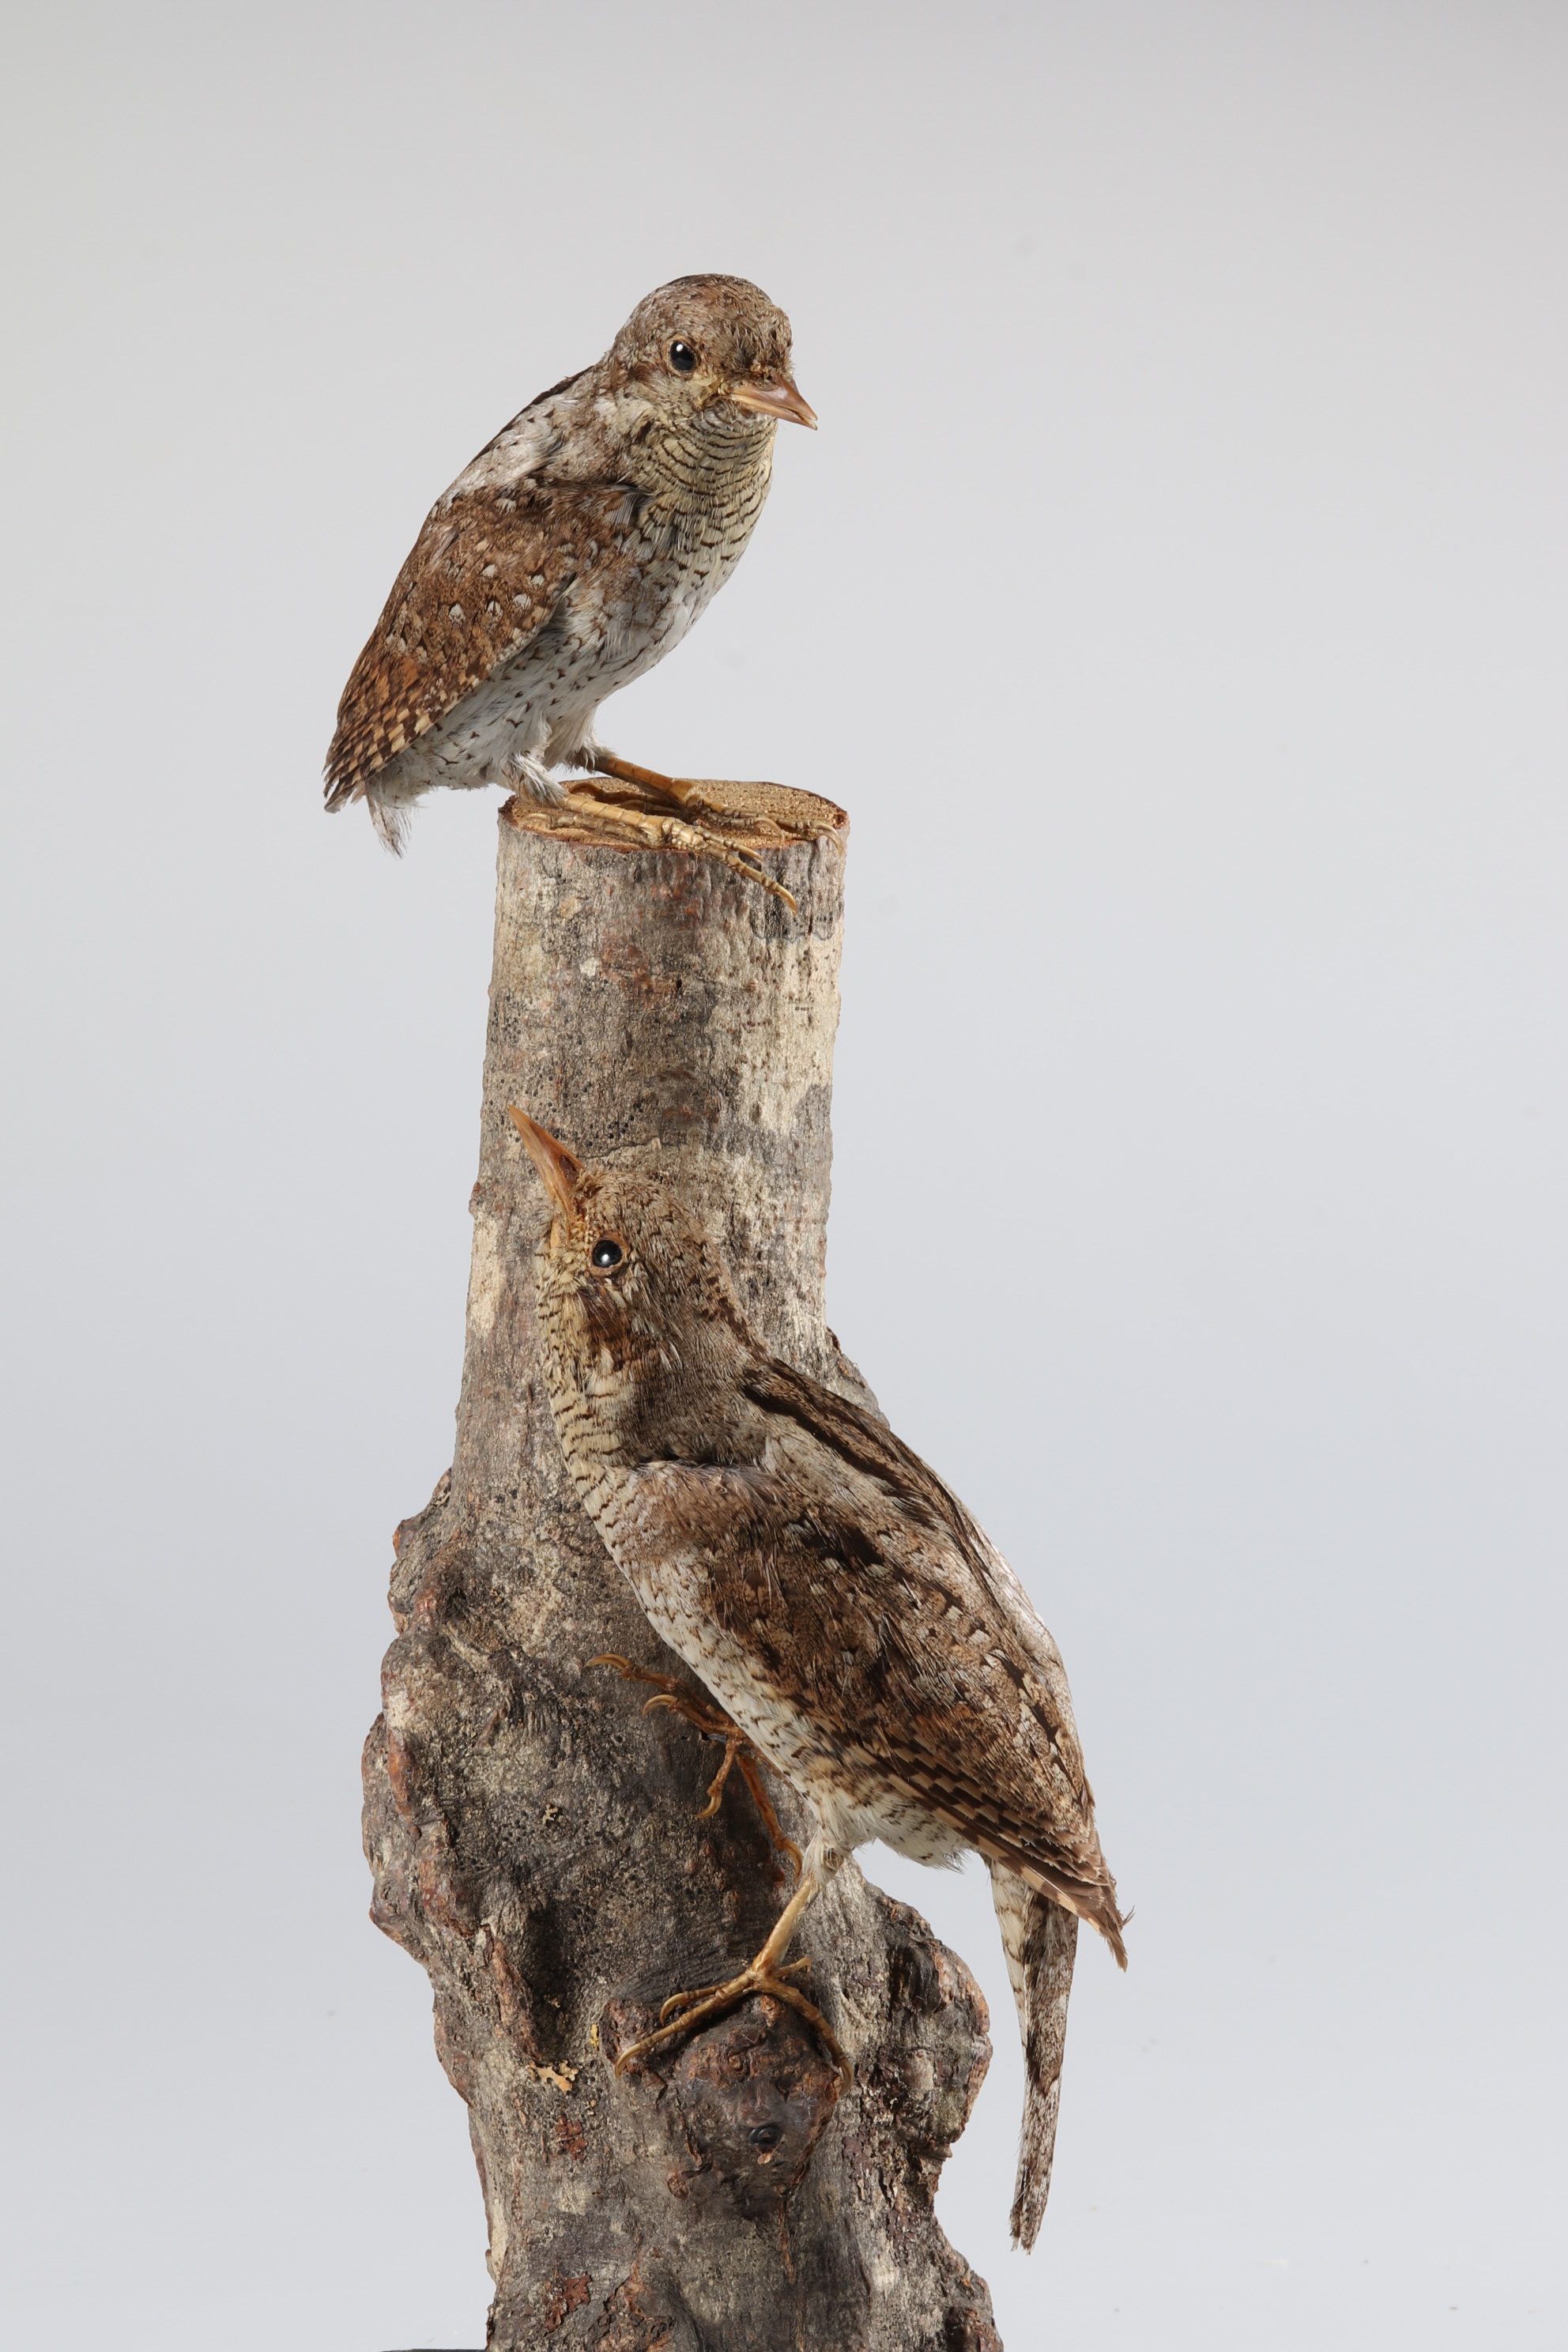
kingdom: Animalia
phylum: Chordata
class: Aves
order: Piciformes
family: Picidae
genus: Jynx
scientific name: Jynx torquilla
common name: Eurasian wryneck
